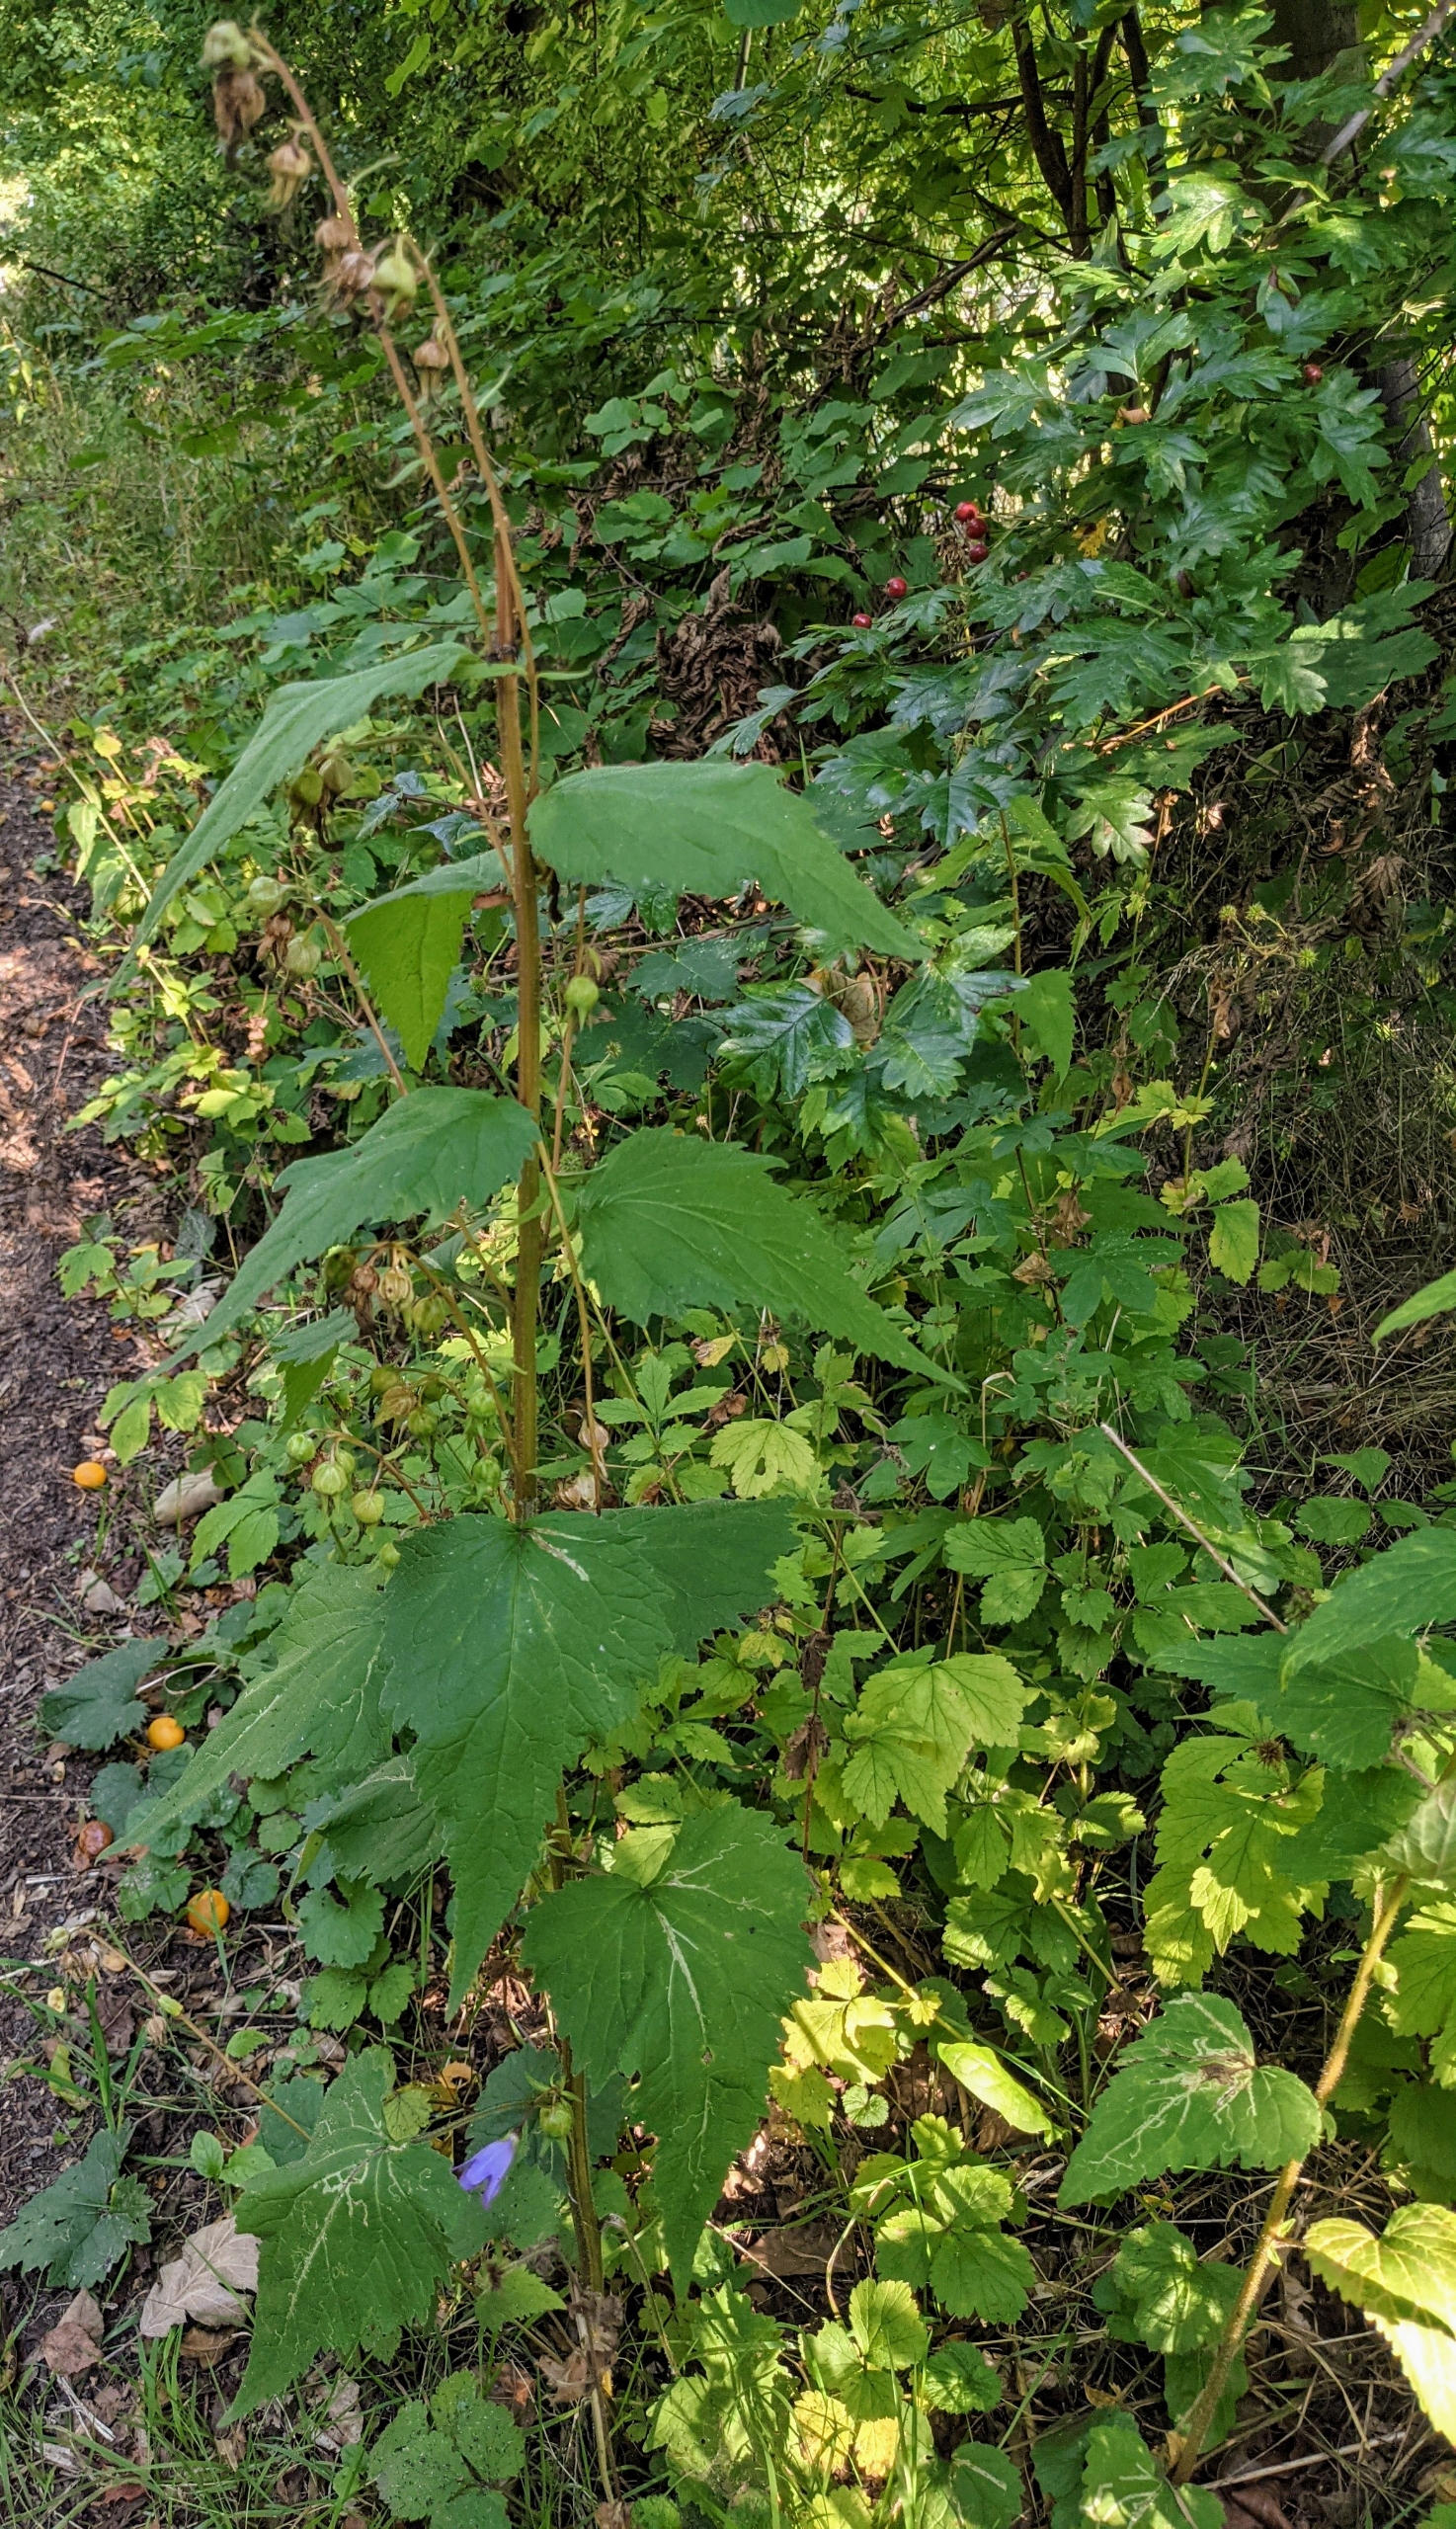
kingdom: Plantae
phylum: Tracheophyta
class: Magnoliopsida
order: Asterales
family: Campanulaceae
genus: Campanula
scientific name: Campanula trachelium
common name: Nælde-klokke
